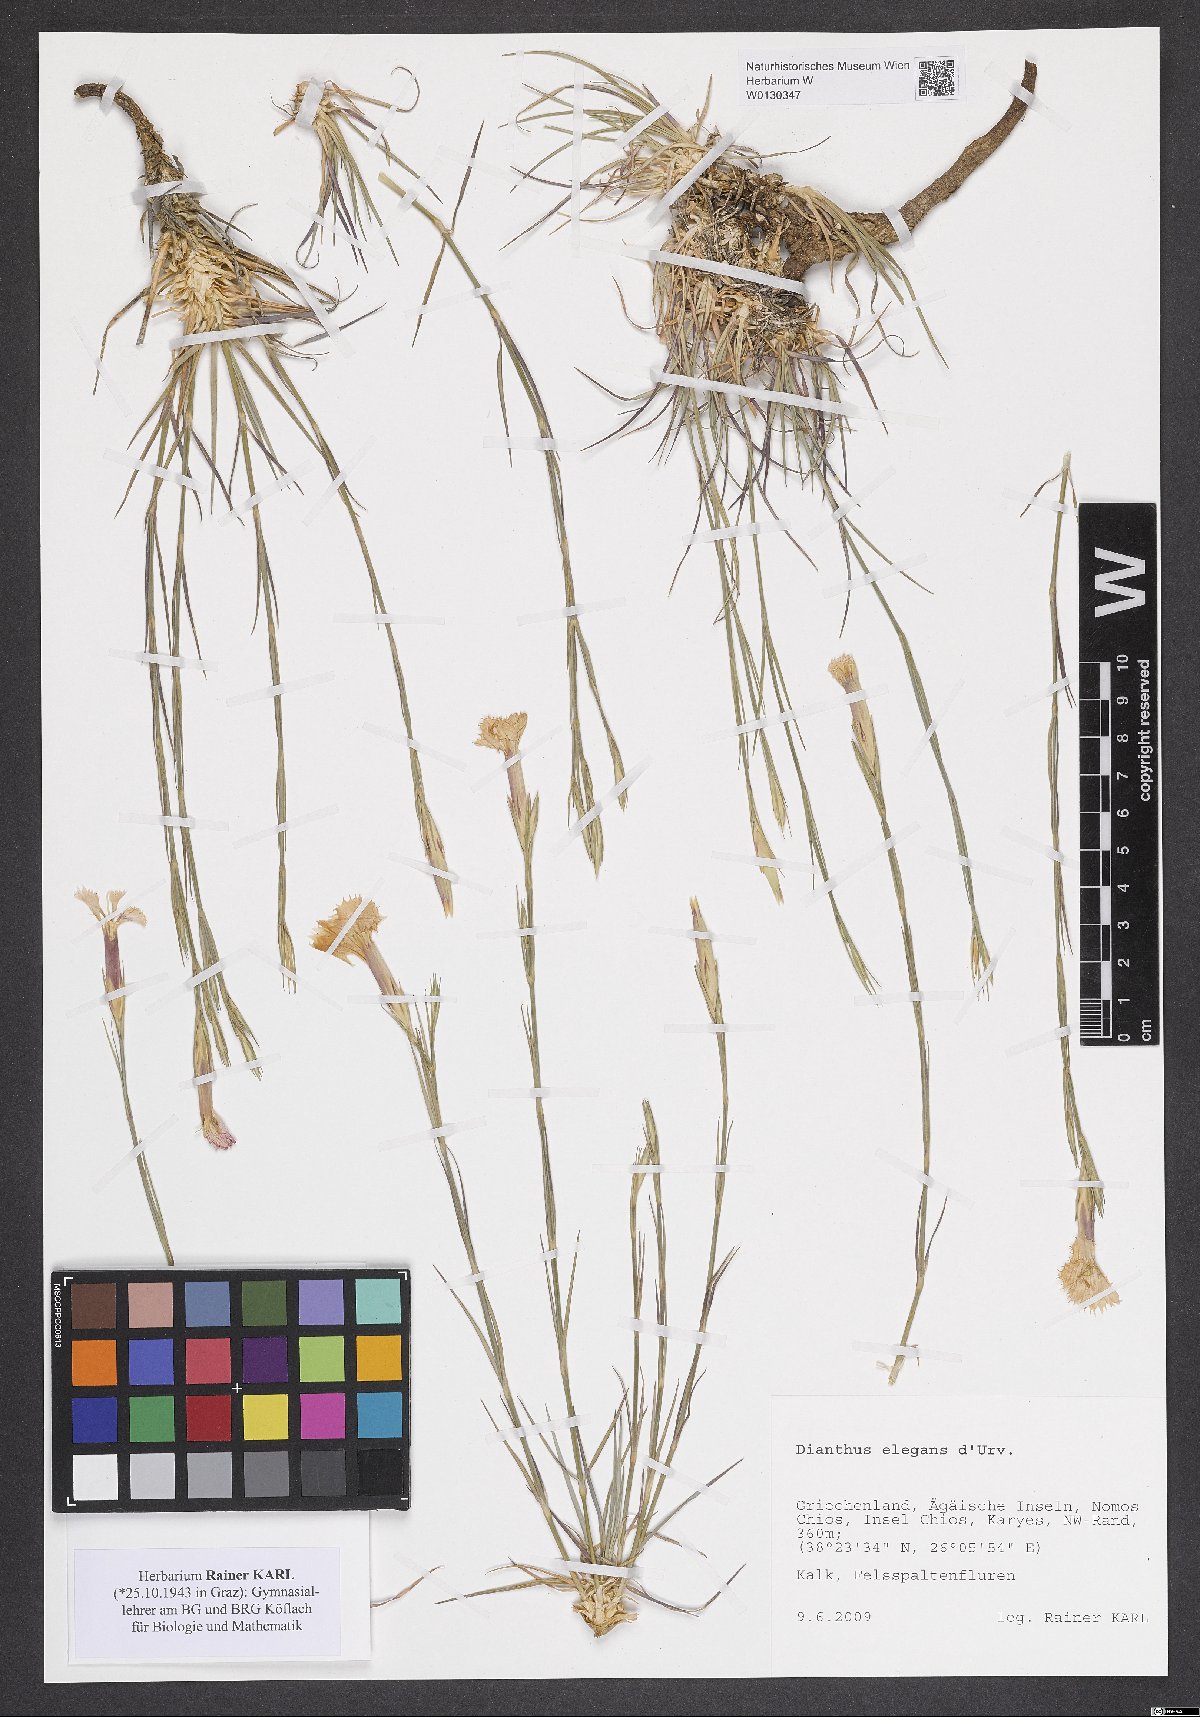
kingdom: Plantae
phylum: Tracheophyta
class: Magnoliopsida
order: Caryophyllales
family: Caryophyllaceae
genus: Dianthus
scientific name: Dianthus elegans
